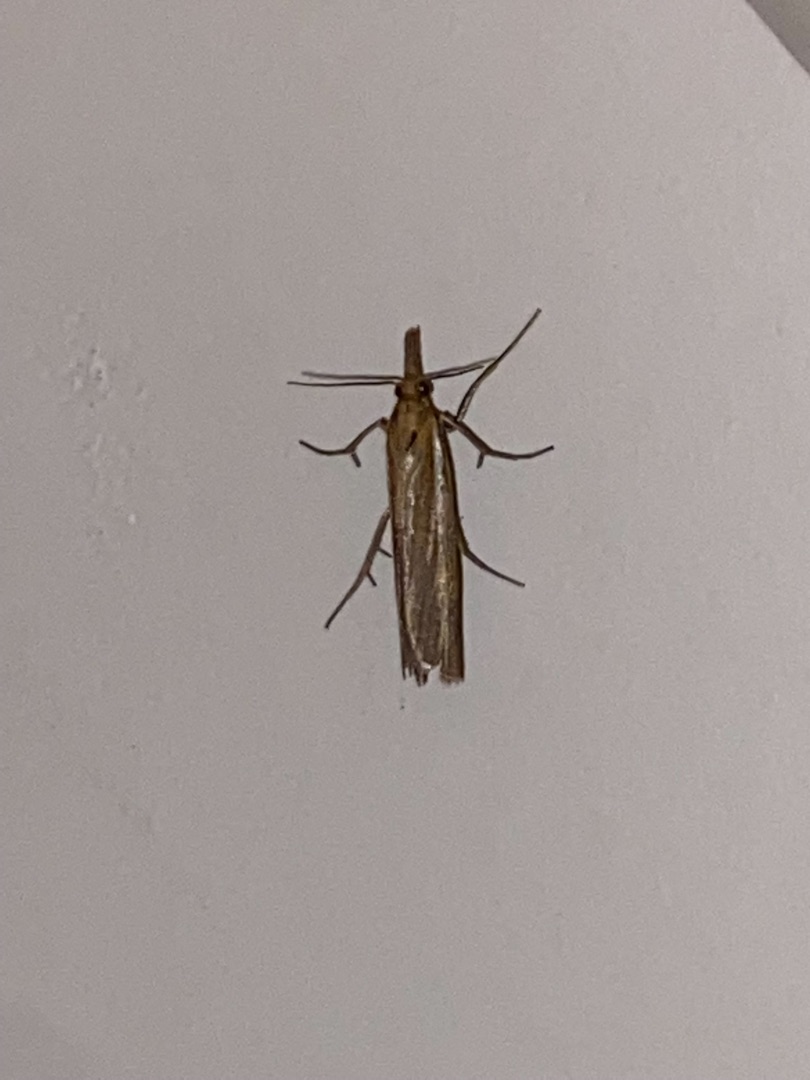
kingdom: Animalia
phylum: Arthropoda
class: Insecta
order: Lepidoptera
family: Crambidae
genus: Agriphila
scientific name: Agriphila tristellus
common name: Okkergult græsmøl
